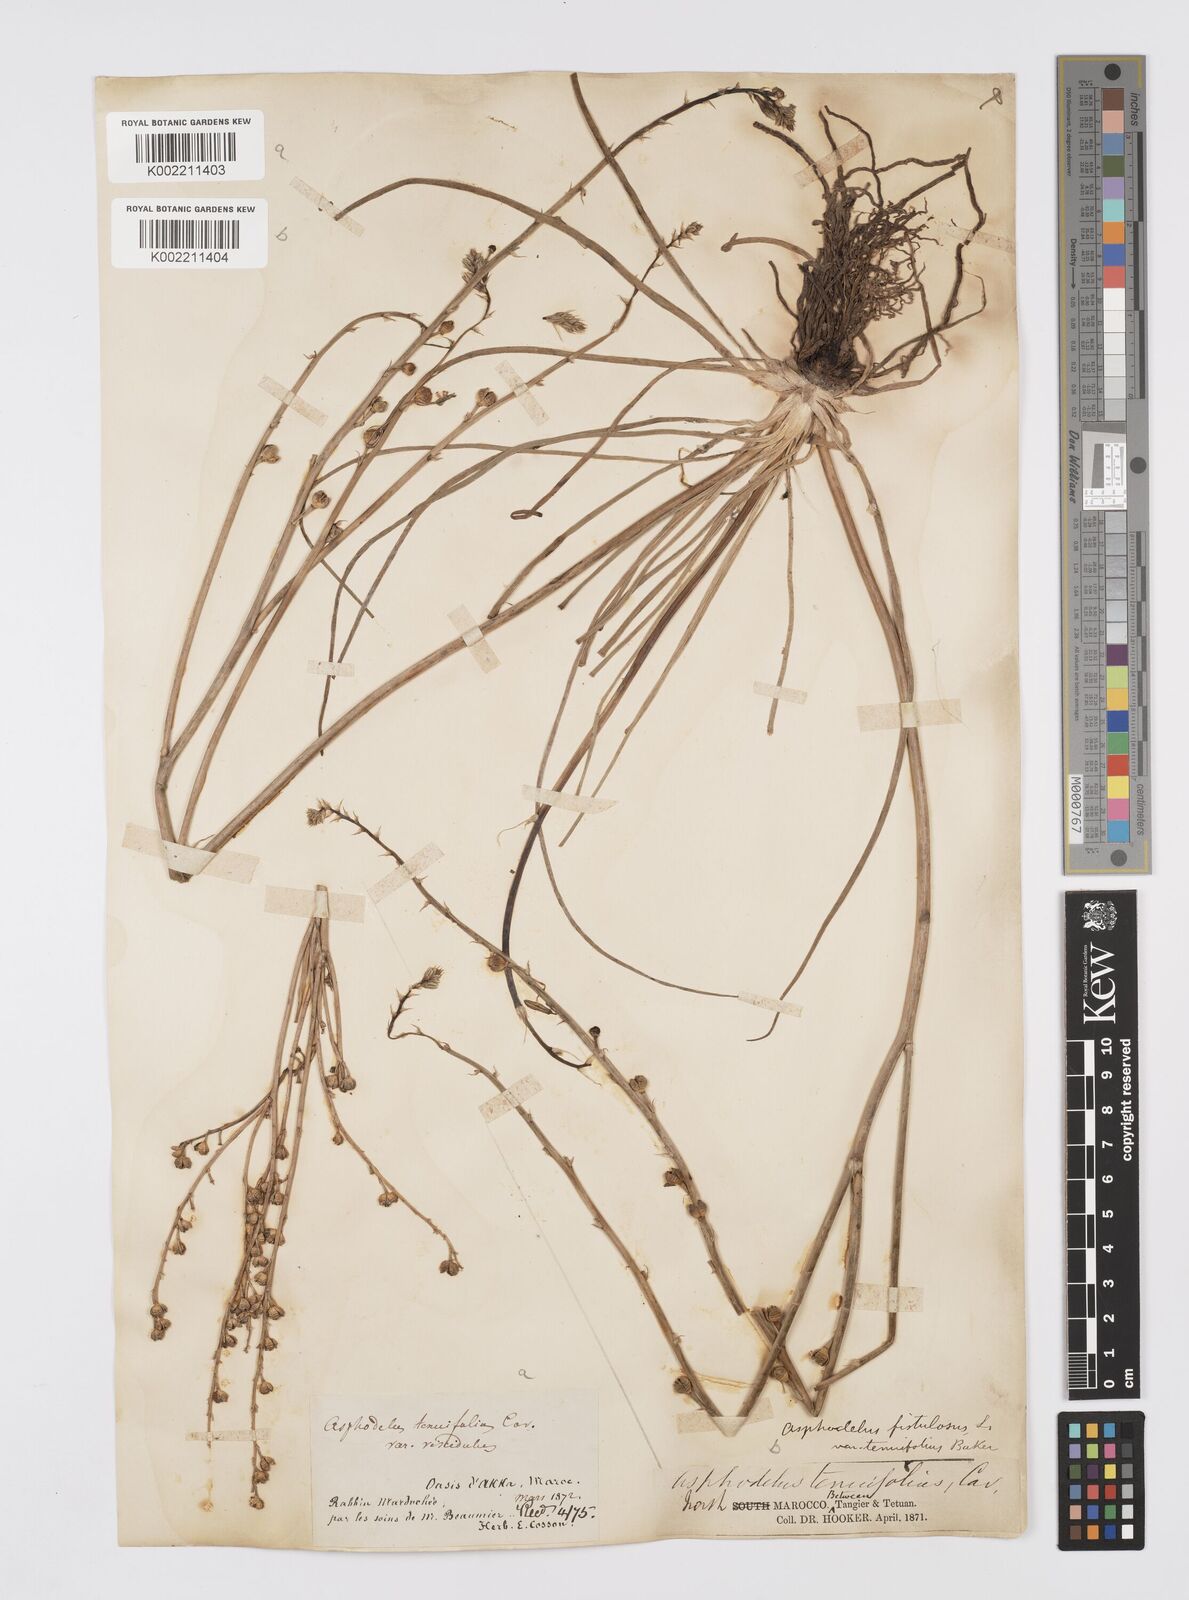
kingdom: Plantae
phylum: Tracheophyta
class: Liliopsida
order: Asparagales
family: Asphodelaceae
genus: Asphodelus
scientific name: Asphodelus fistulosus
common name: Onionweed
